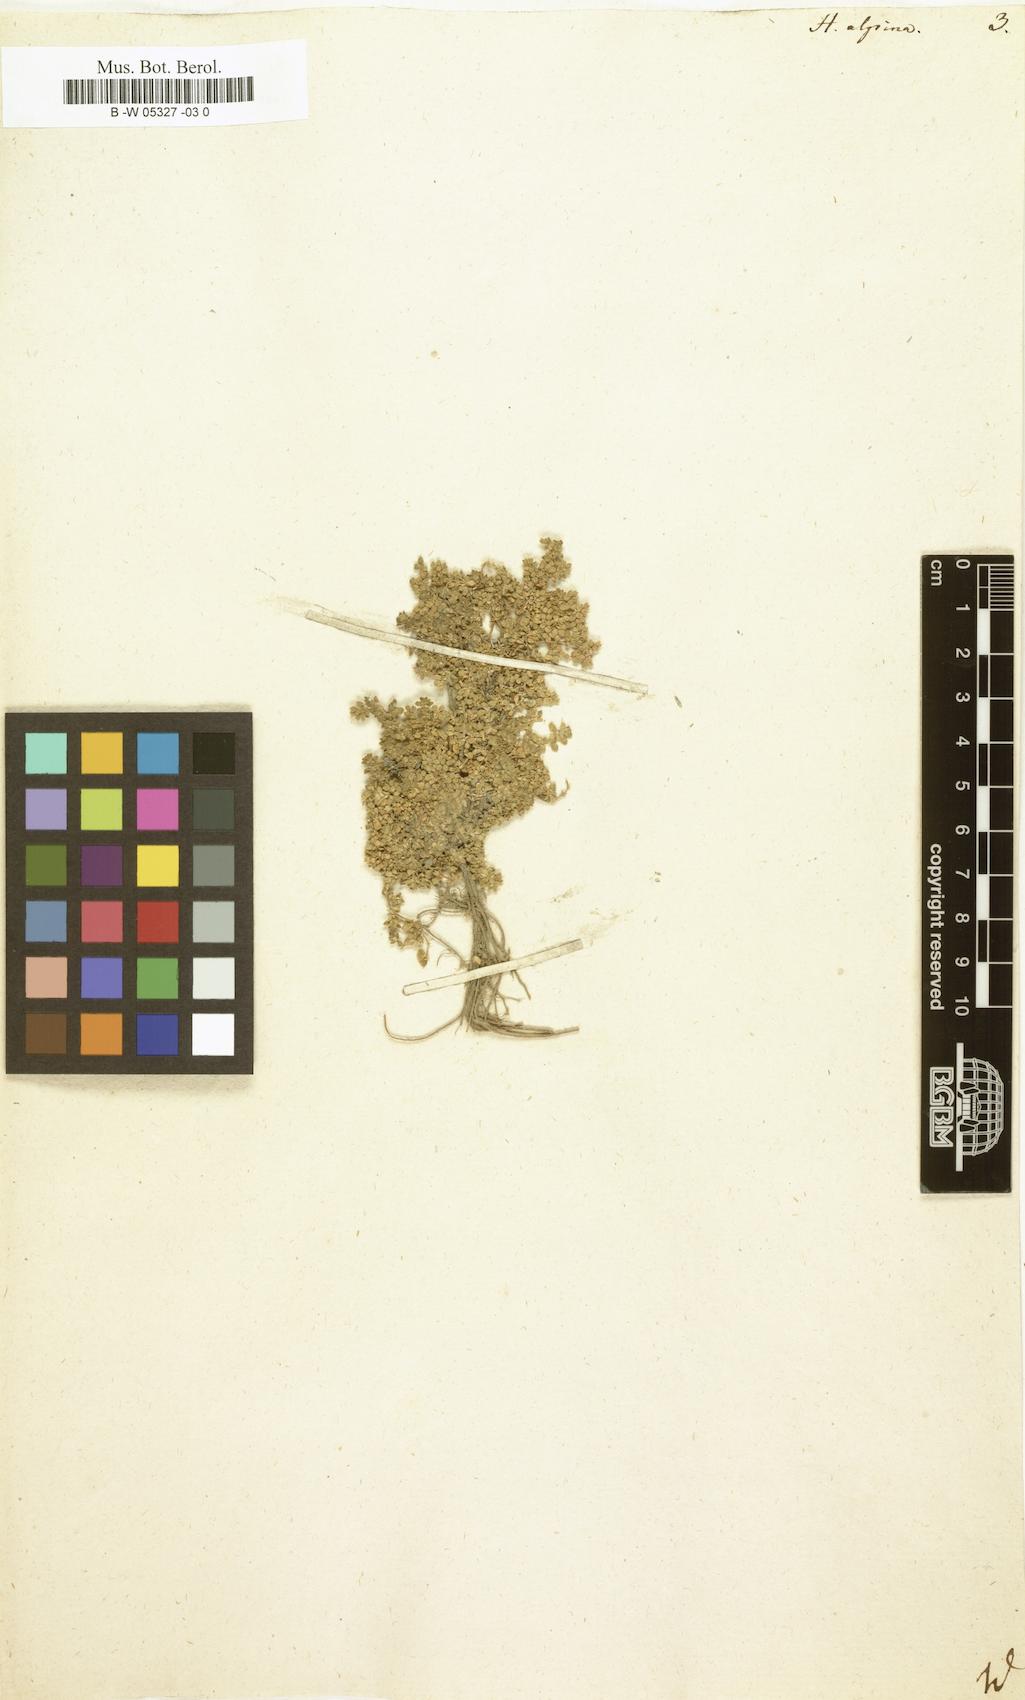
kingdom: Plantae
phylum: Tracheophyta
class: Magnoliopsida
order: Caryophyllales
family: Caryophyllaceae
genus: Herniaria
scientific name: Herniaria alpina
